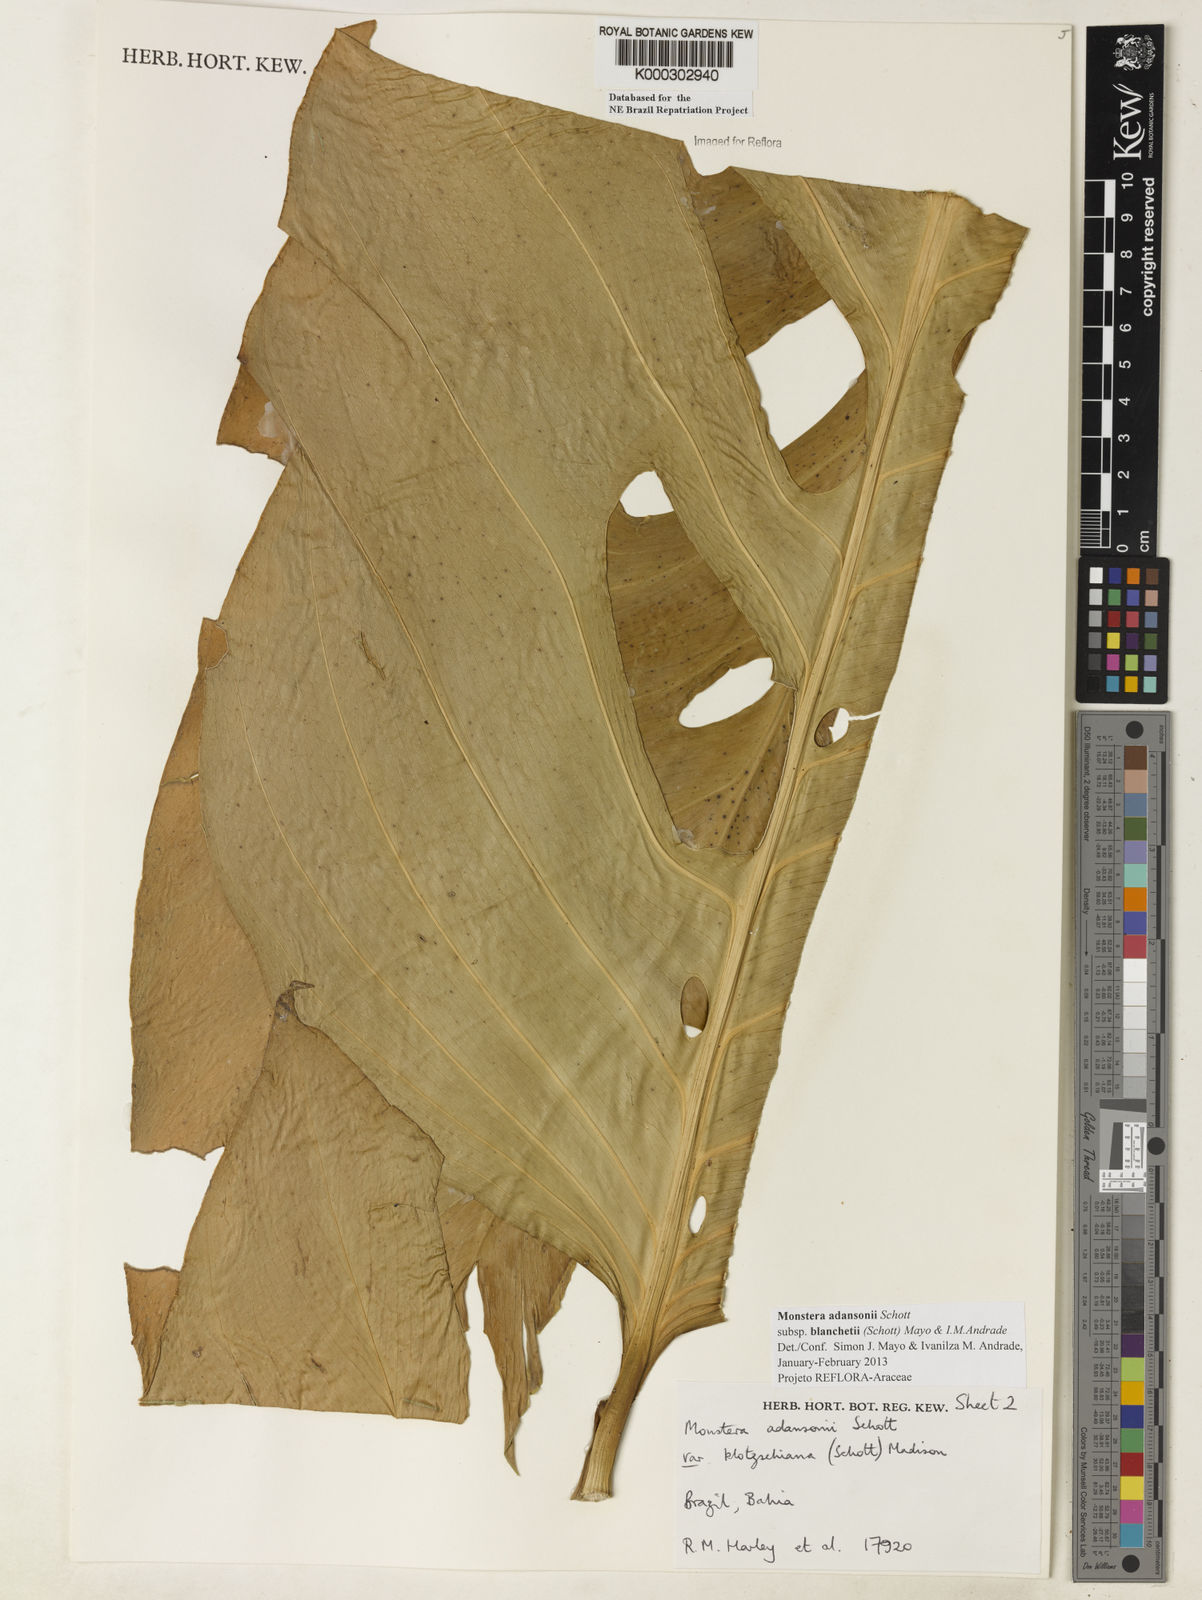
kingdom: Plantae
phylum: Tracheophyta
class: Liliopsida
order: Alismatales
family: Araceae
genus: Monstera
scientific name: Monstera adansonii
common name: Tarovine
